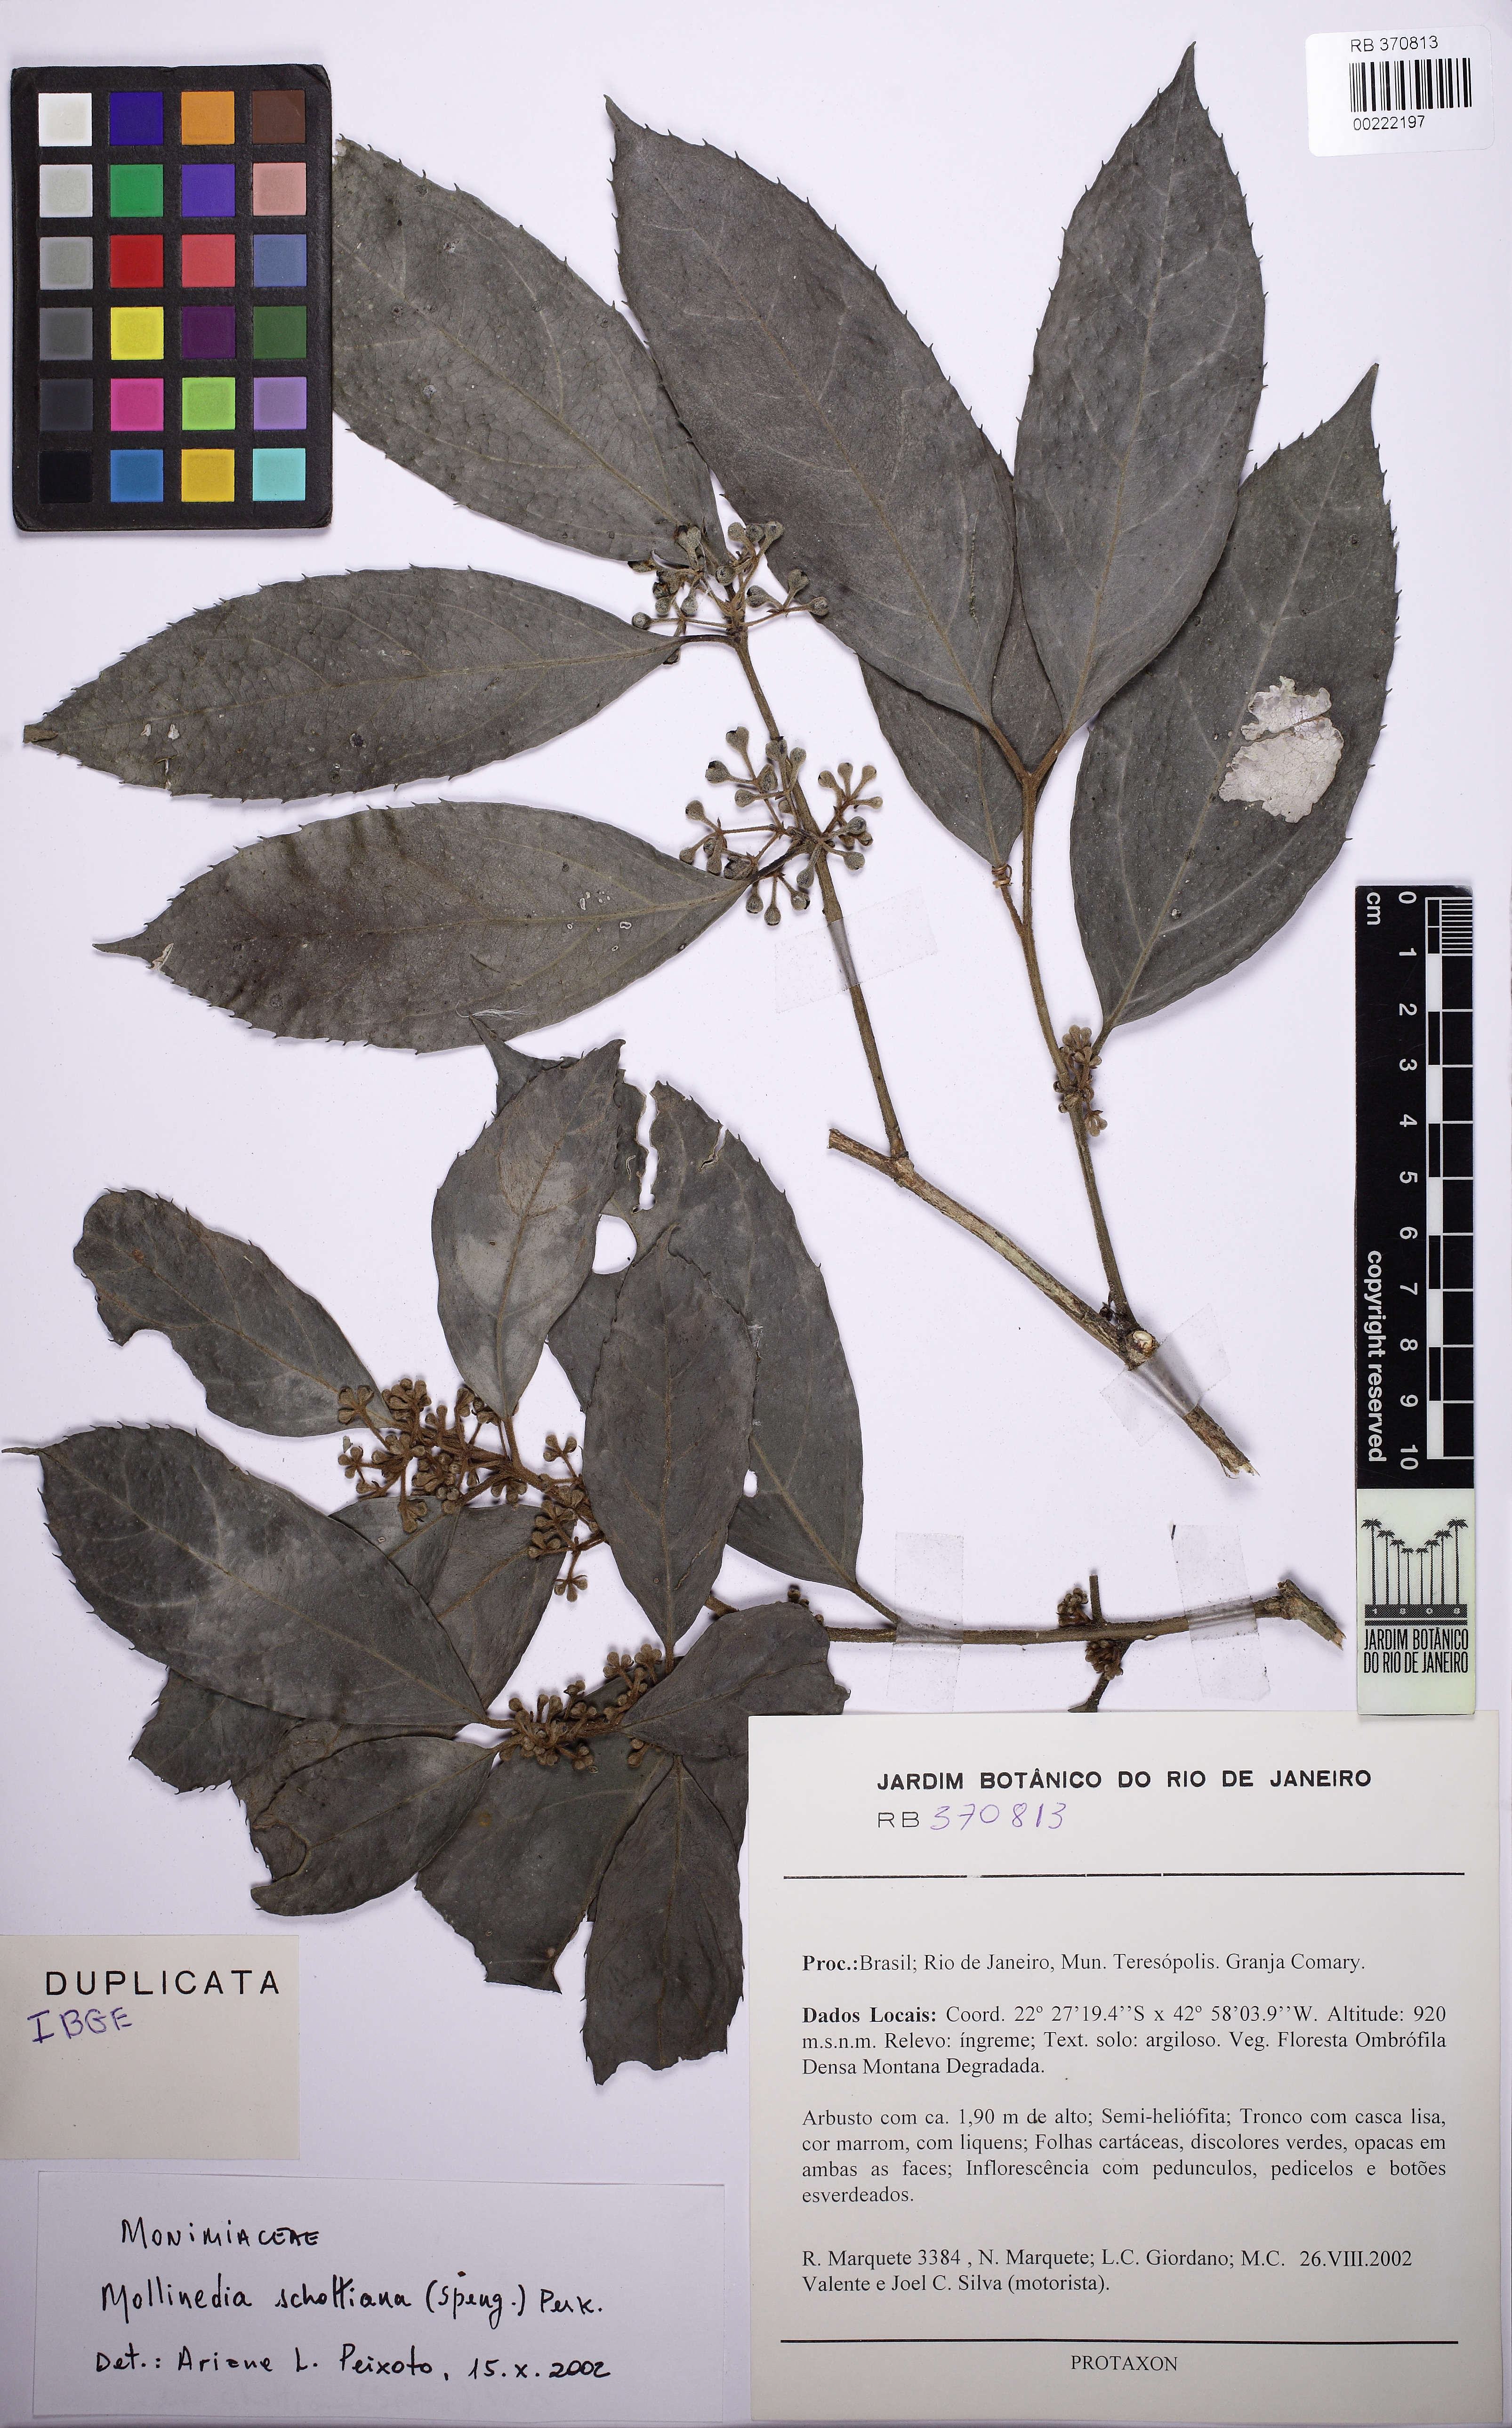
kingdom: Plantae
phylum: Tracheophyta
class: Magnoliopsida
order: Laurales
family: Monimiaceae
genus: Mollinedia
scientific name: Mollinedia umbellata
